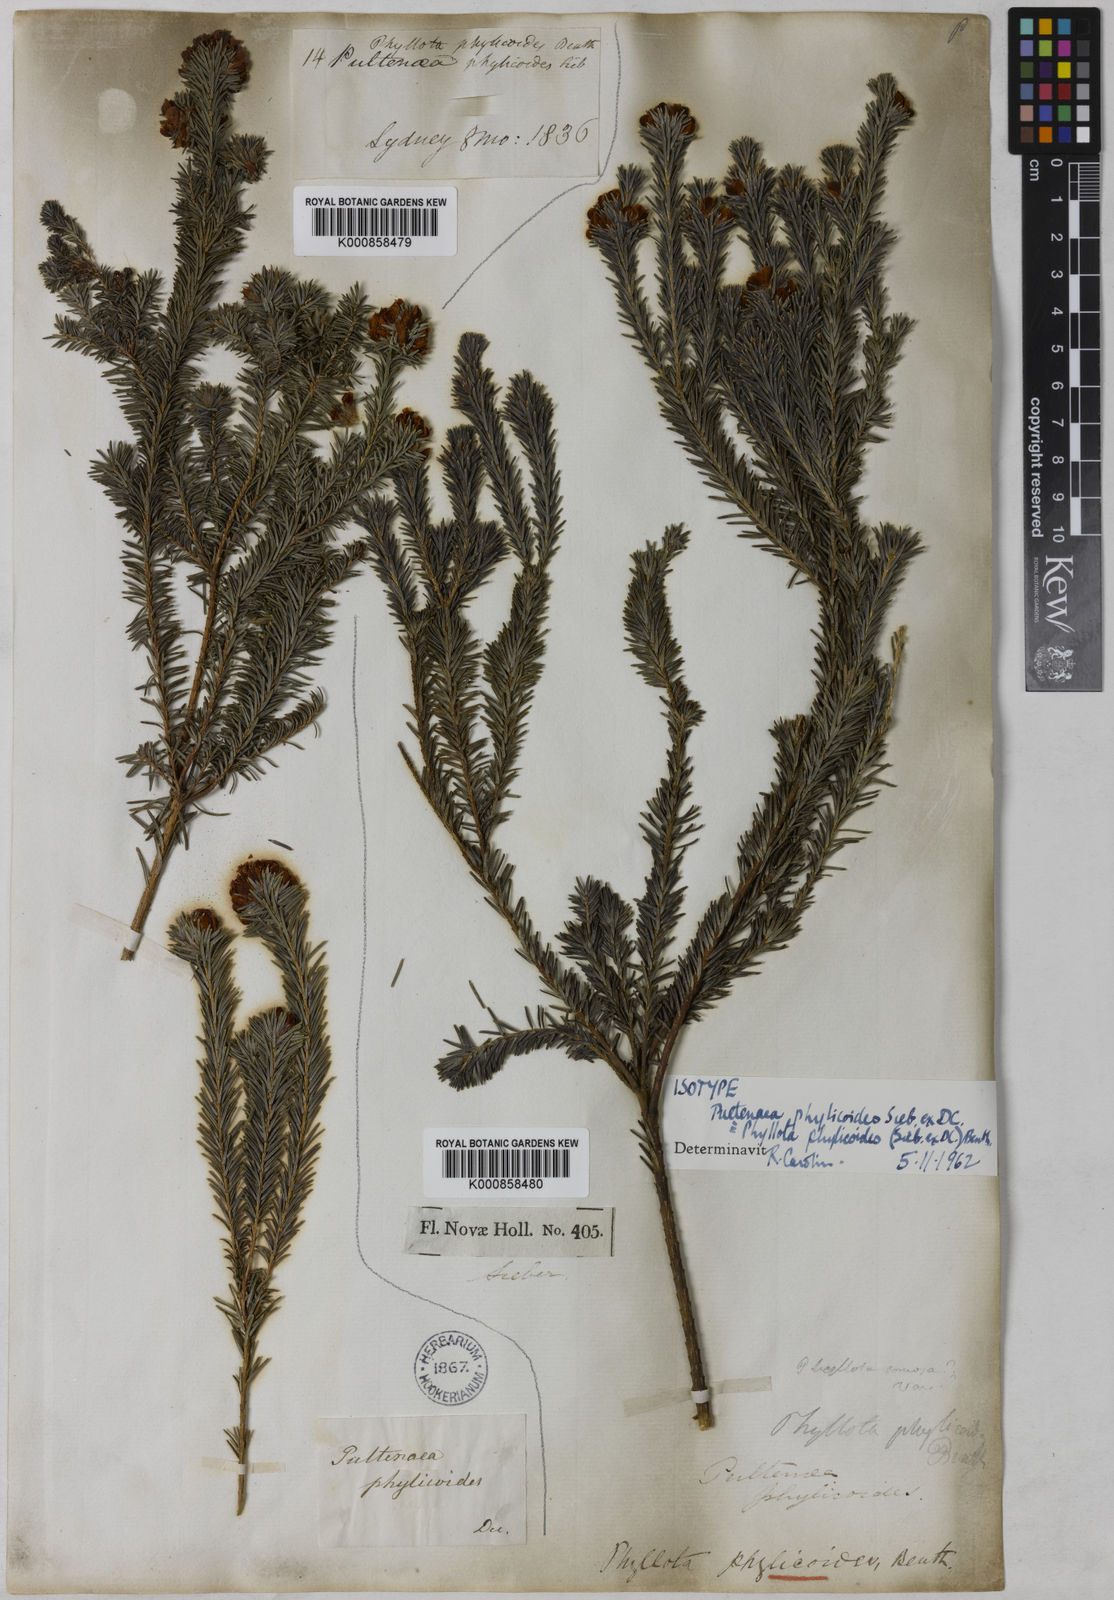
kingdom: Plantae
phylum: Tracheophyta
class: Magnoliopsida
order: Fabales
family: Fabaceae
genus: Phyllota
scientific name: Phyllota phylicoides
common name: Heath phyllota
